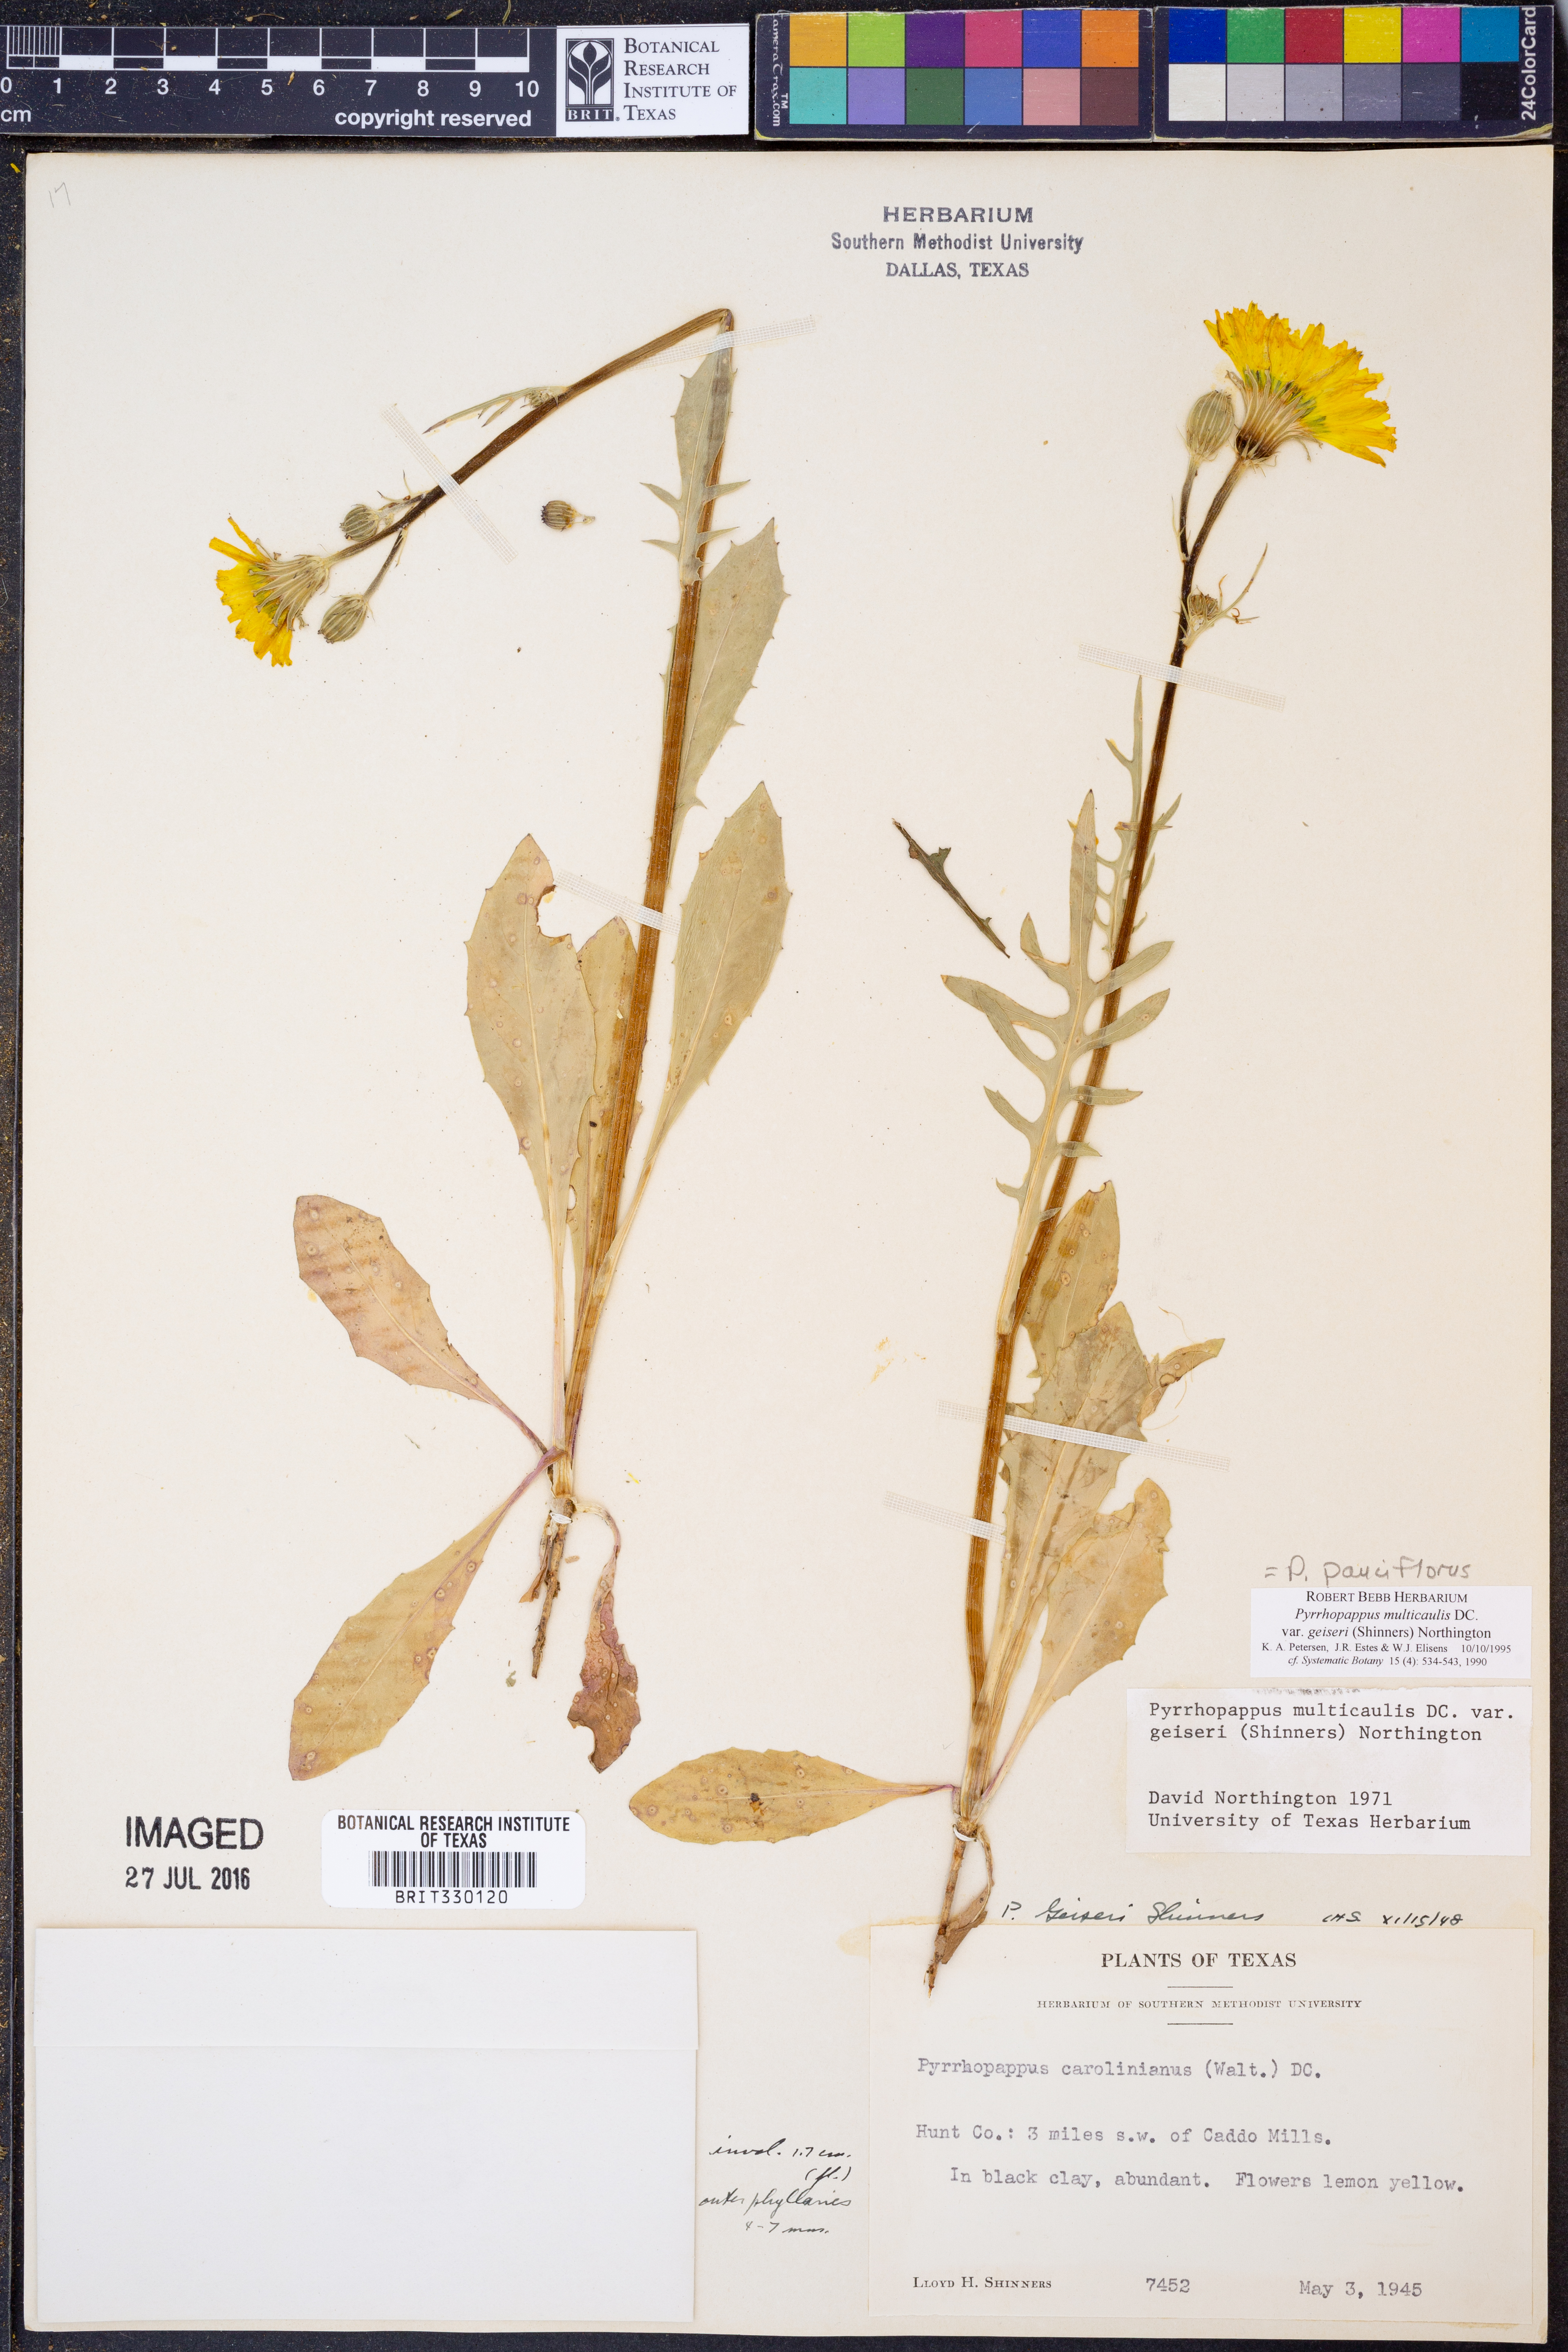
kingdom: Plantae
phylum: Tracheophyta
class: Magnoliopsida
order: Asterales
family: Asteraceae
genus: Pyrrhopappus
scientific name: Pyrrhopappus pauciflorus
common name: Texas false dandelion
